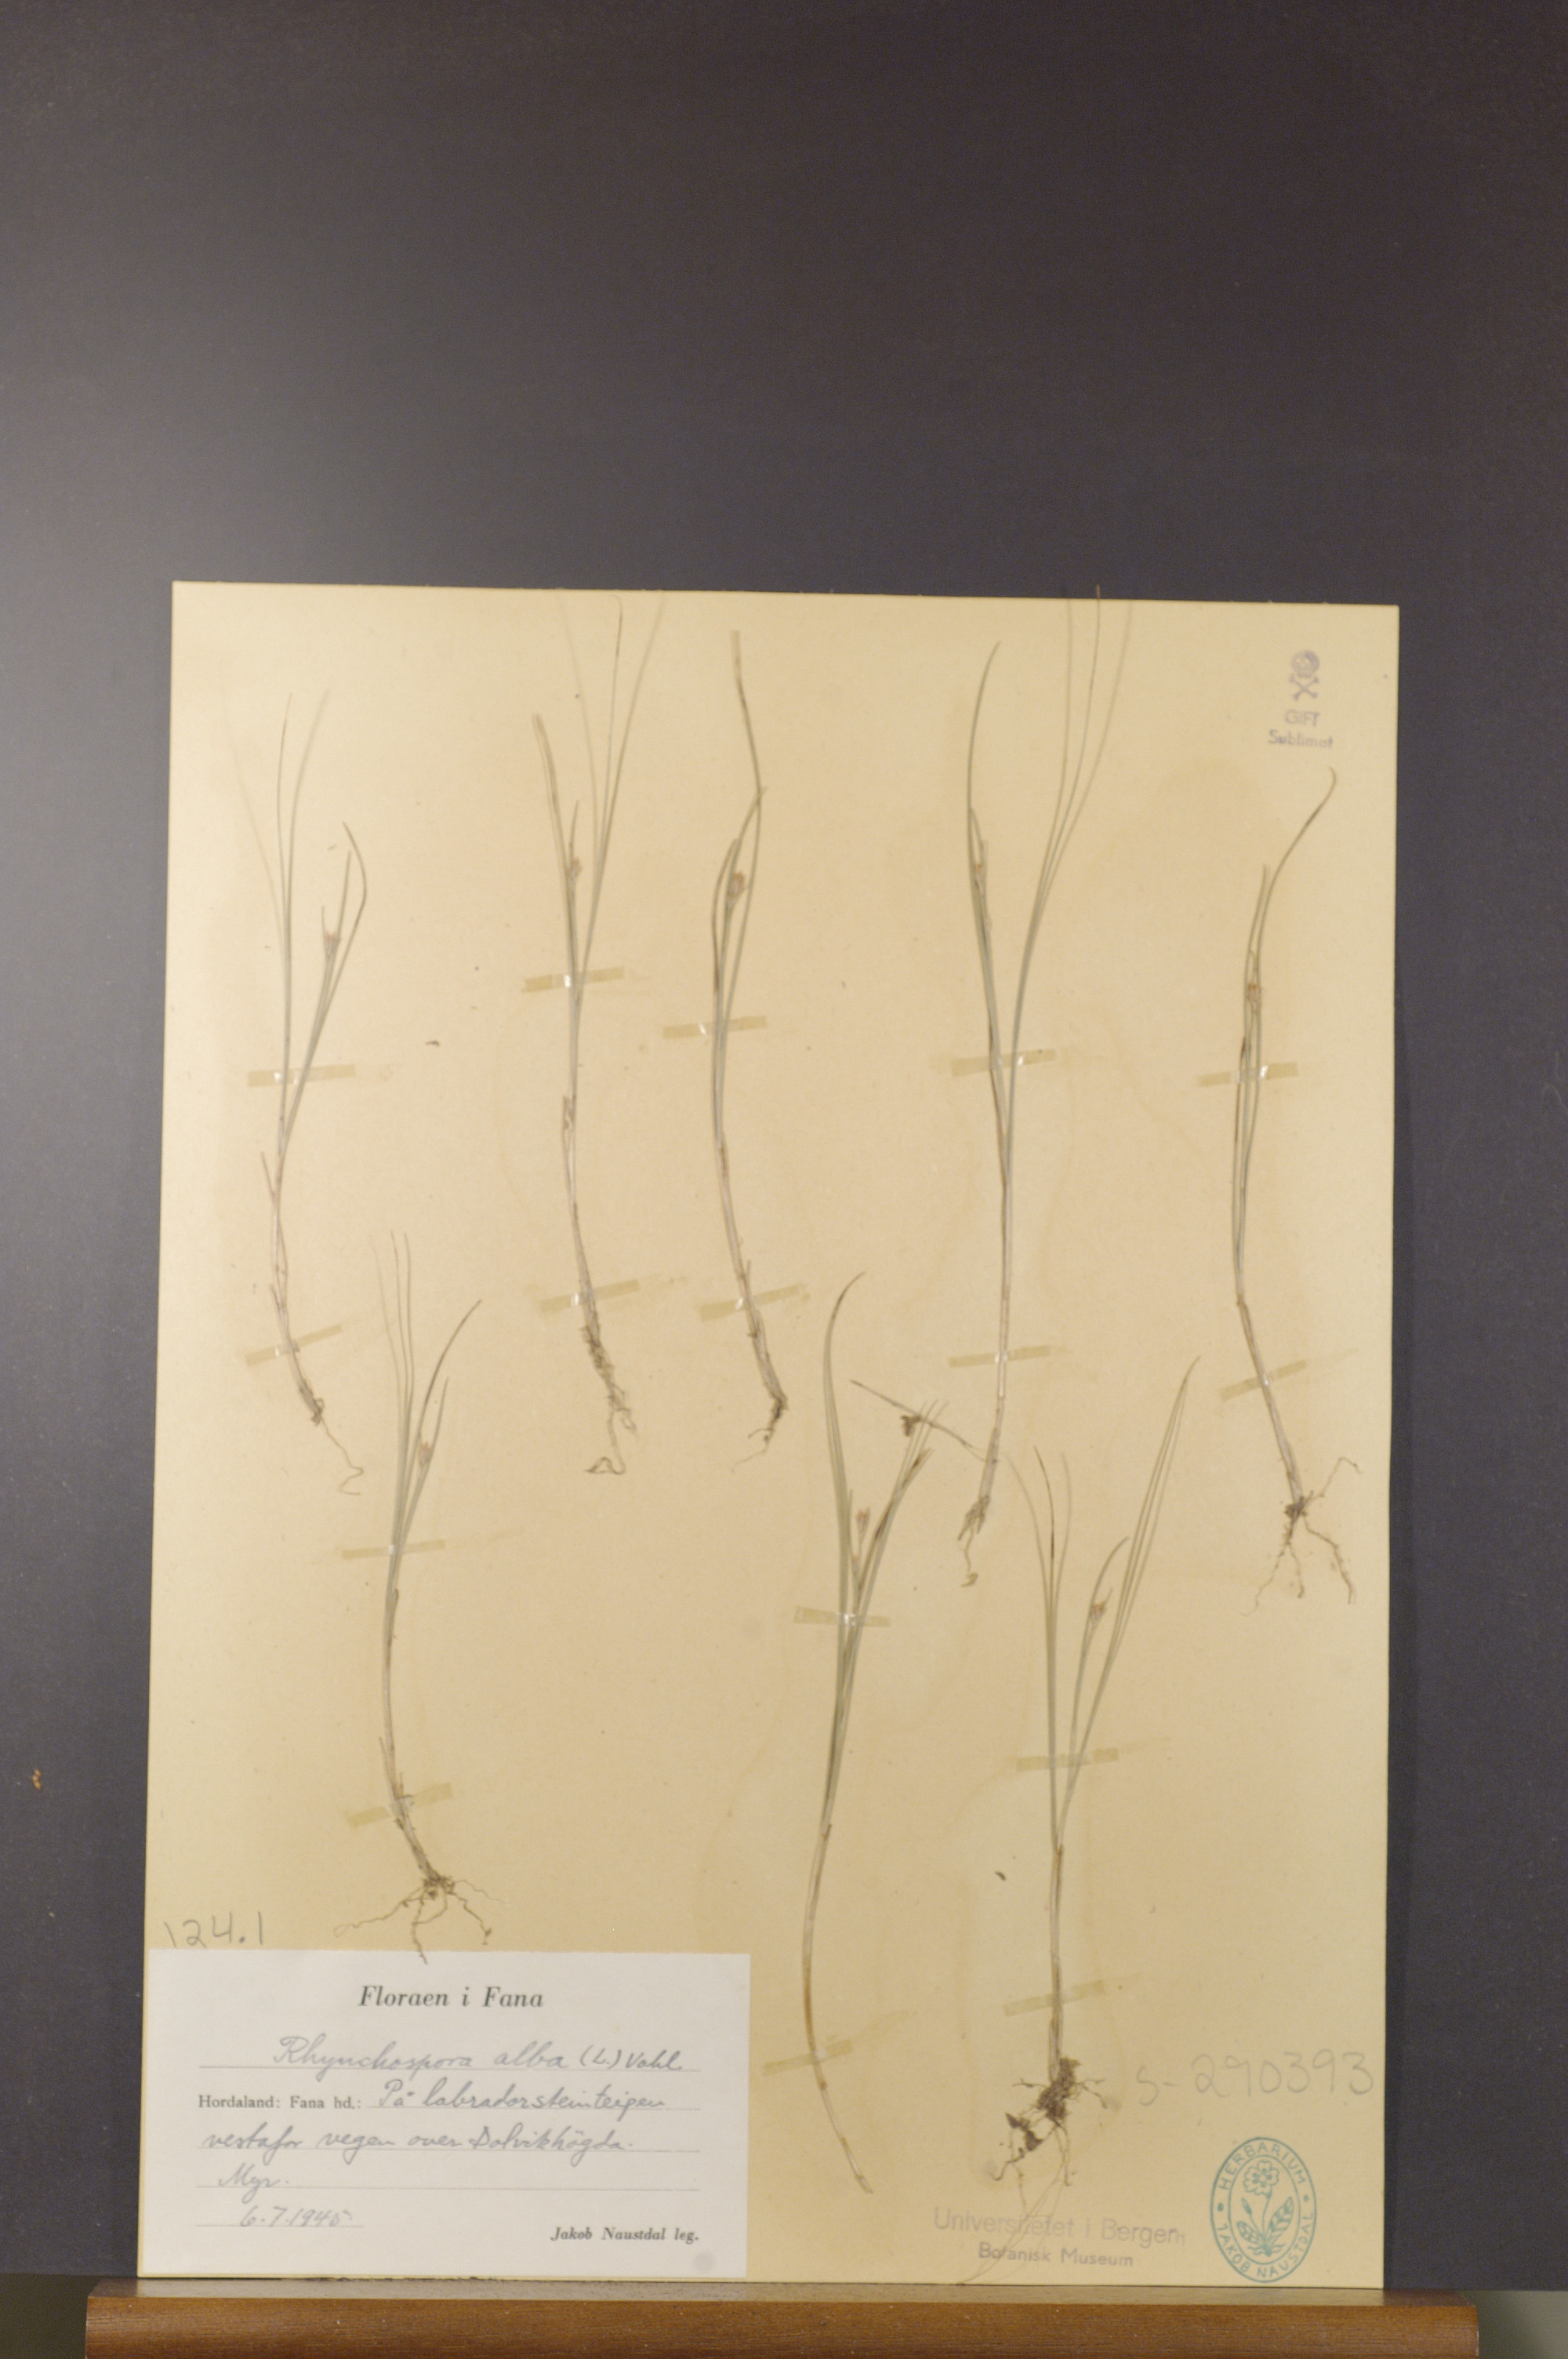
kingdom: Plantae
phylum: Tracheophyta
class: Liliopsida
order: Poales
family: Cyperaceae
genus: Rhynchospora
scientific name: Rhynchospora alba
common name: White beak-sedge
